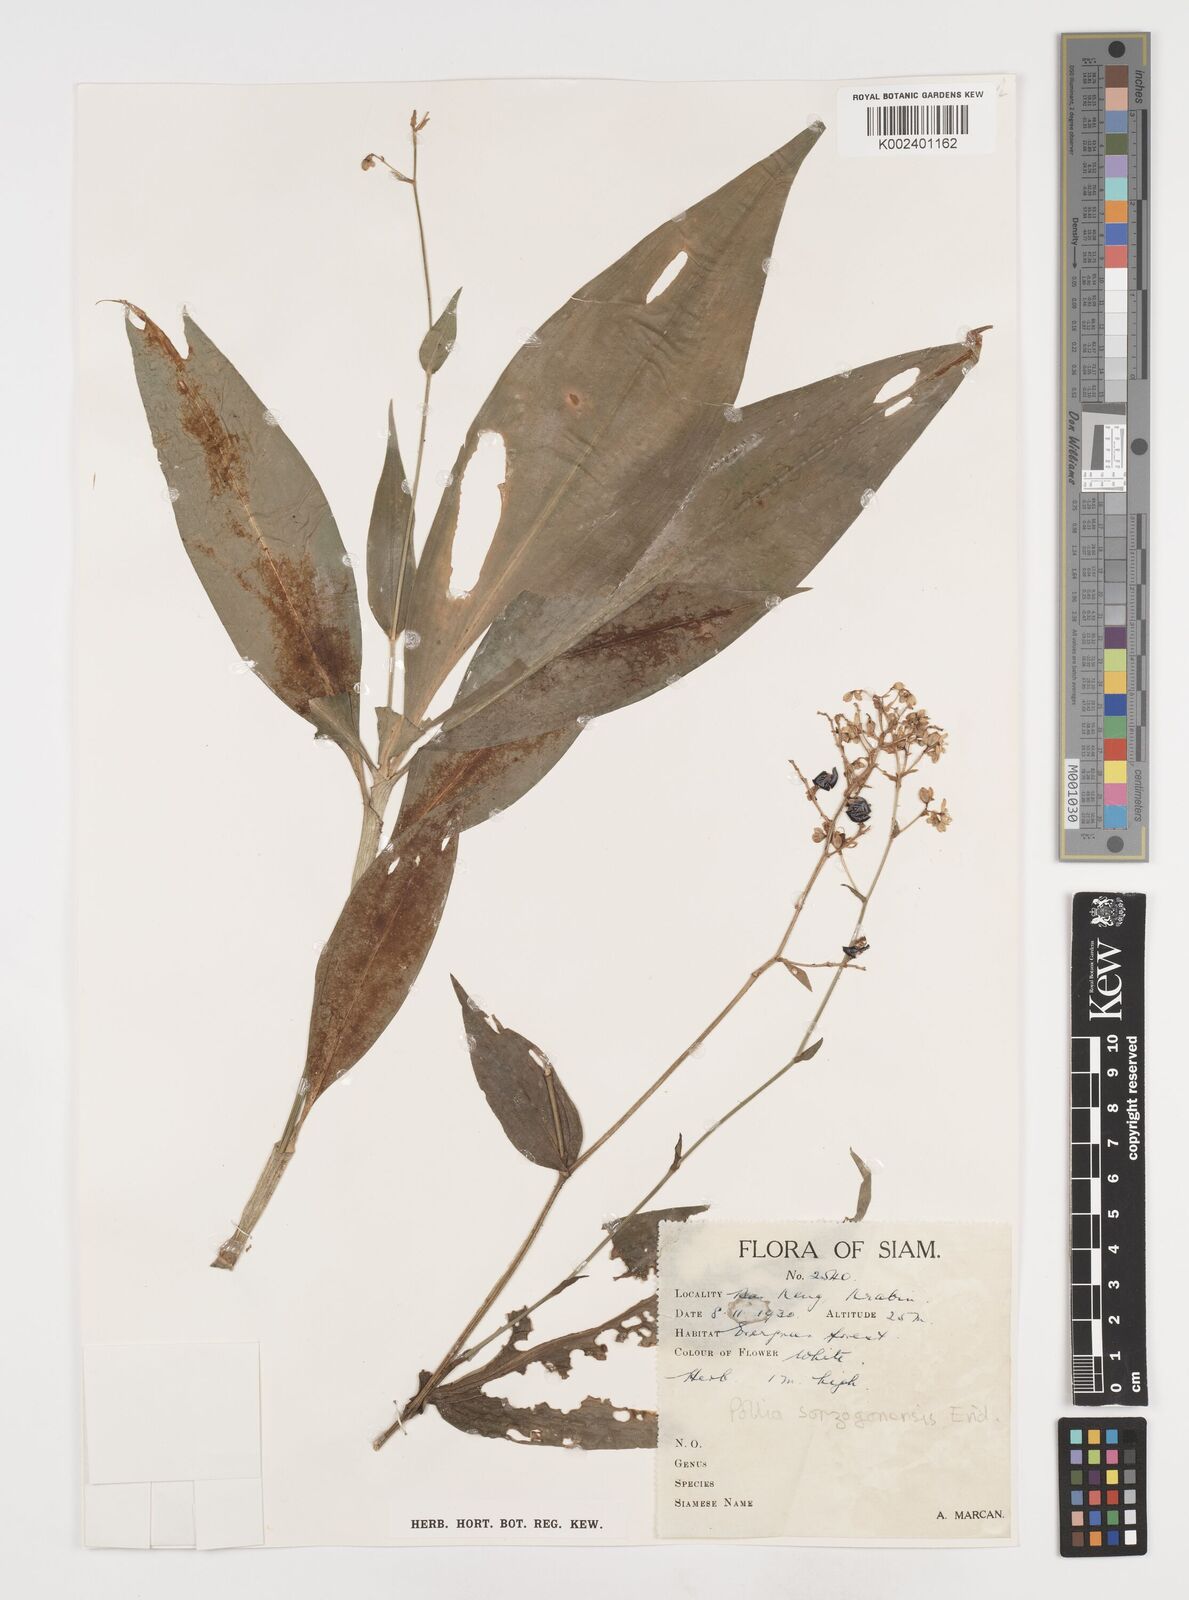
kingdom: Plantae
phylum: Tracheophyta
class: Liliopsida
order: Commelinales
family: Commelinaceae
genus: Pollia
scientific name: Pollia secundiflora
